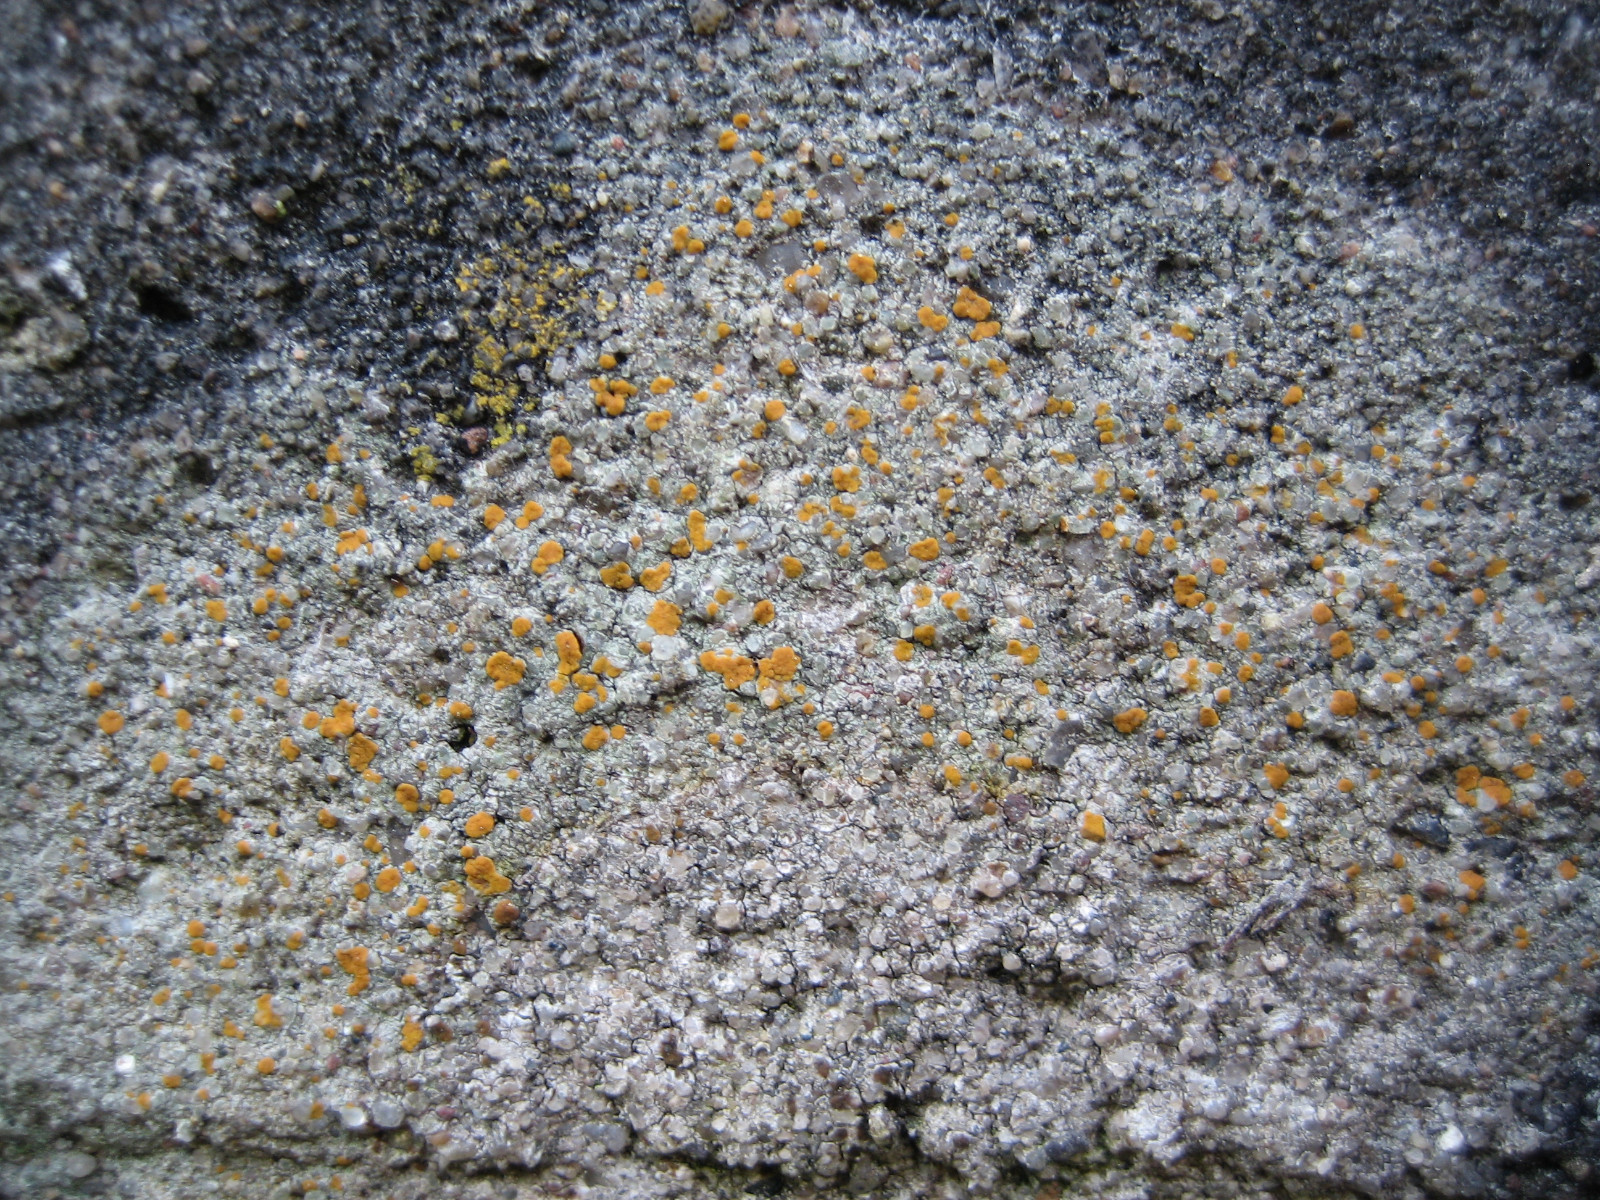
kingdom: Fungi
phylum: Ascomycota
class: Lecanoromycetes
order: Lecanorales
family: Psoraceae
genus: Protoblastenia
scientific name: Protoblastenia rupestris
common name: kalk-gulskivelav
